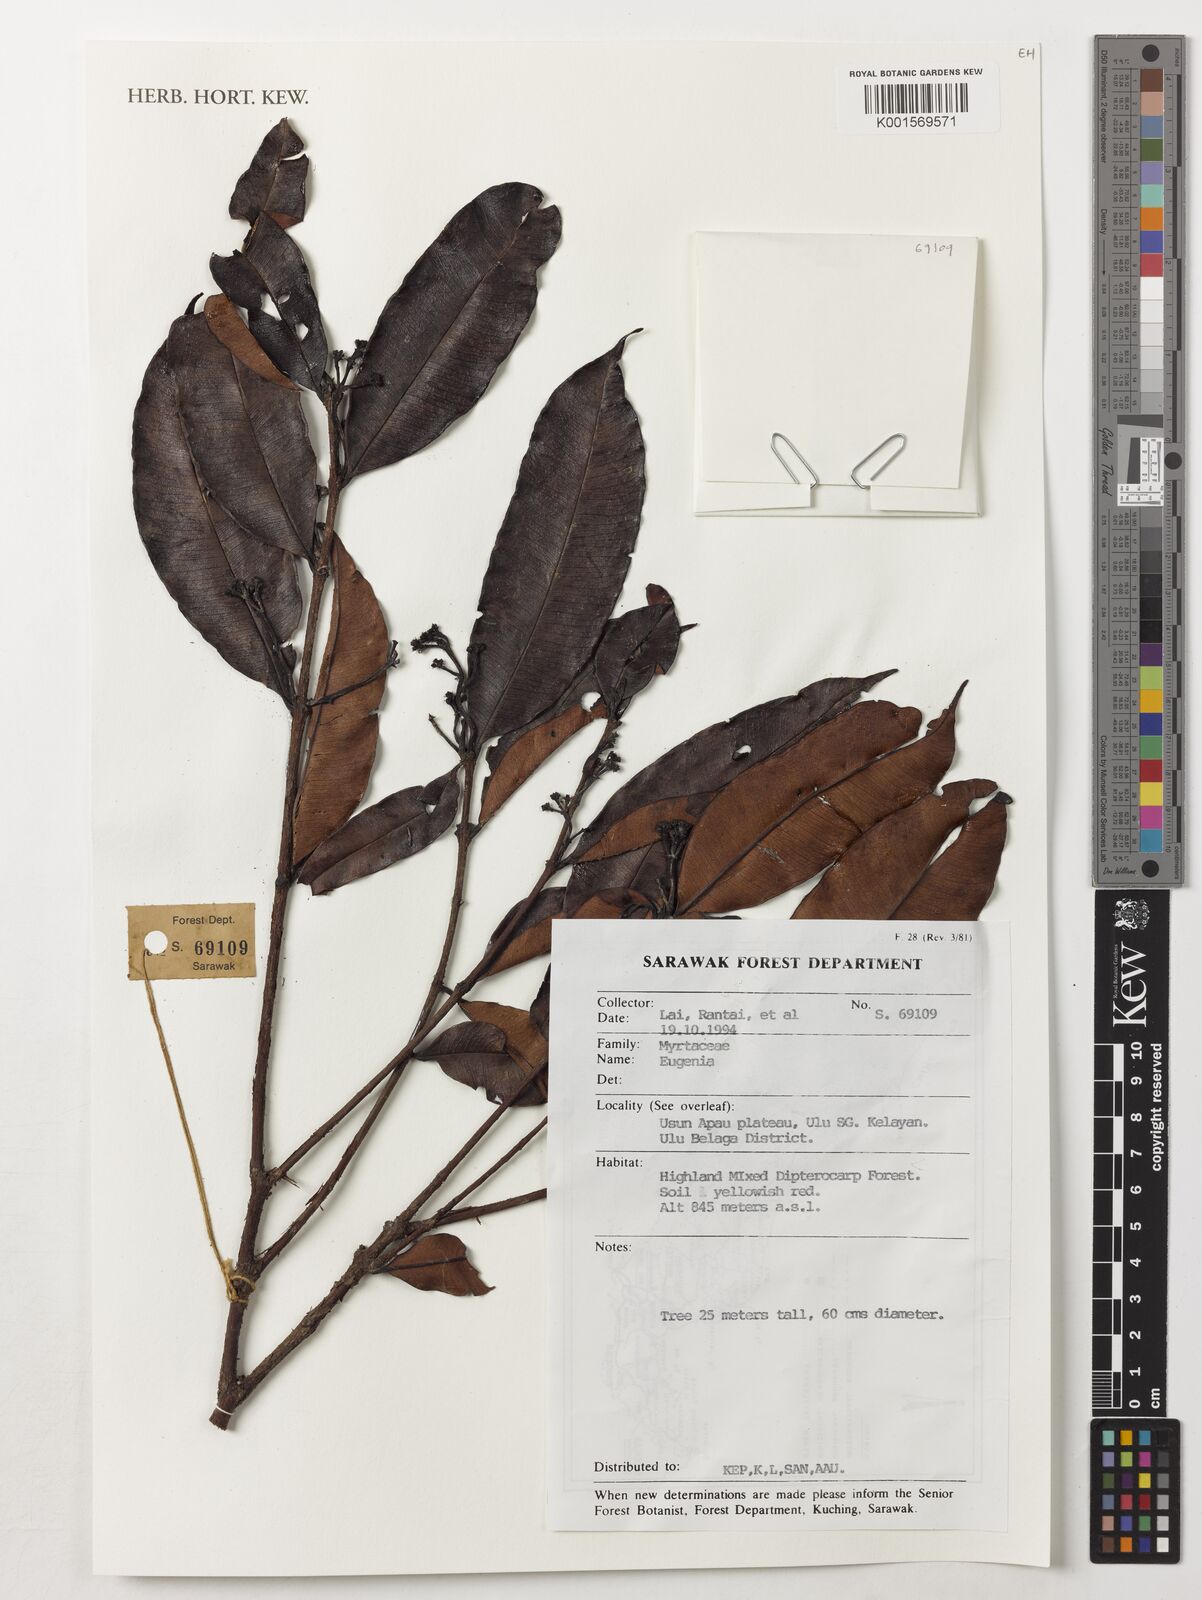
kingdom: Plantae
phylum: Tracheophyta
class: Magnoliopsida
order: Myrtales
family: Myrtaceae
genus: Eugenia
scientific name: Eugenia
